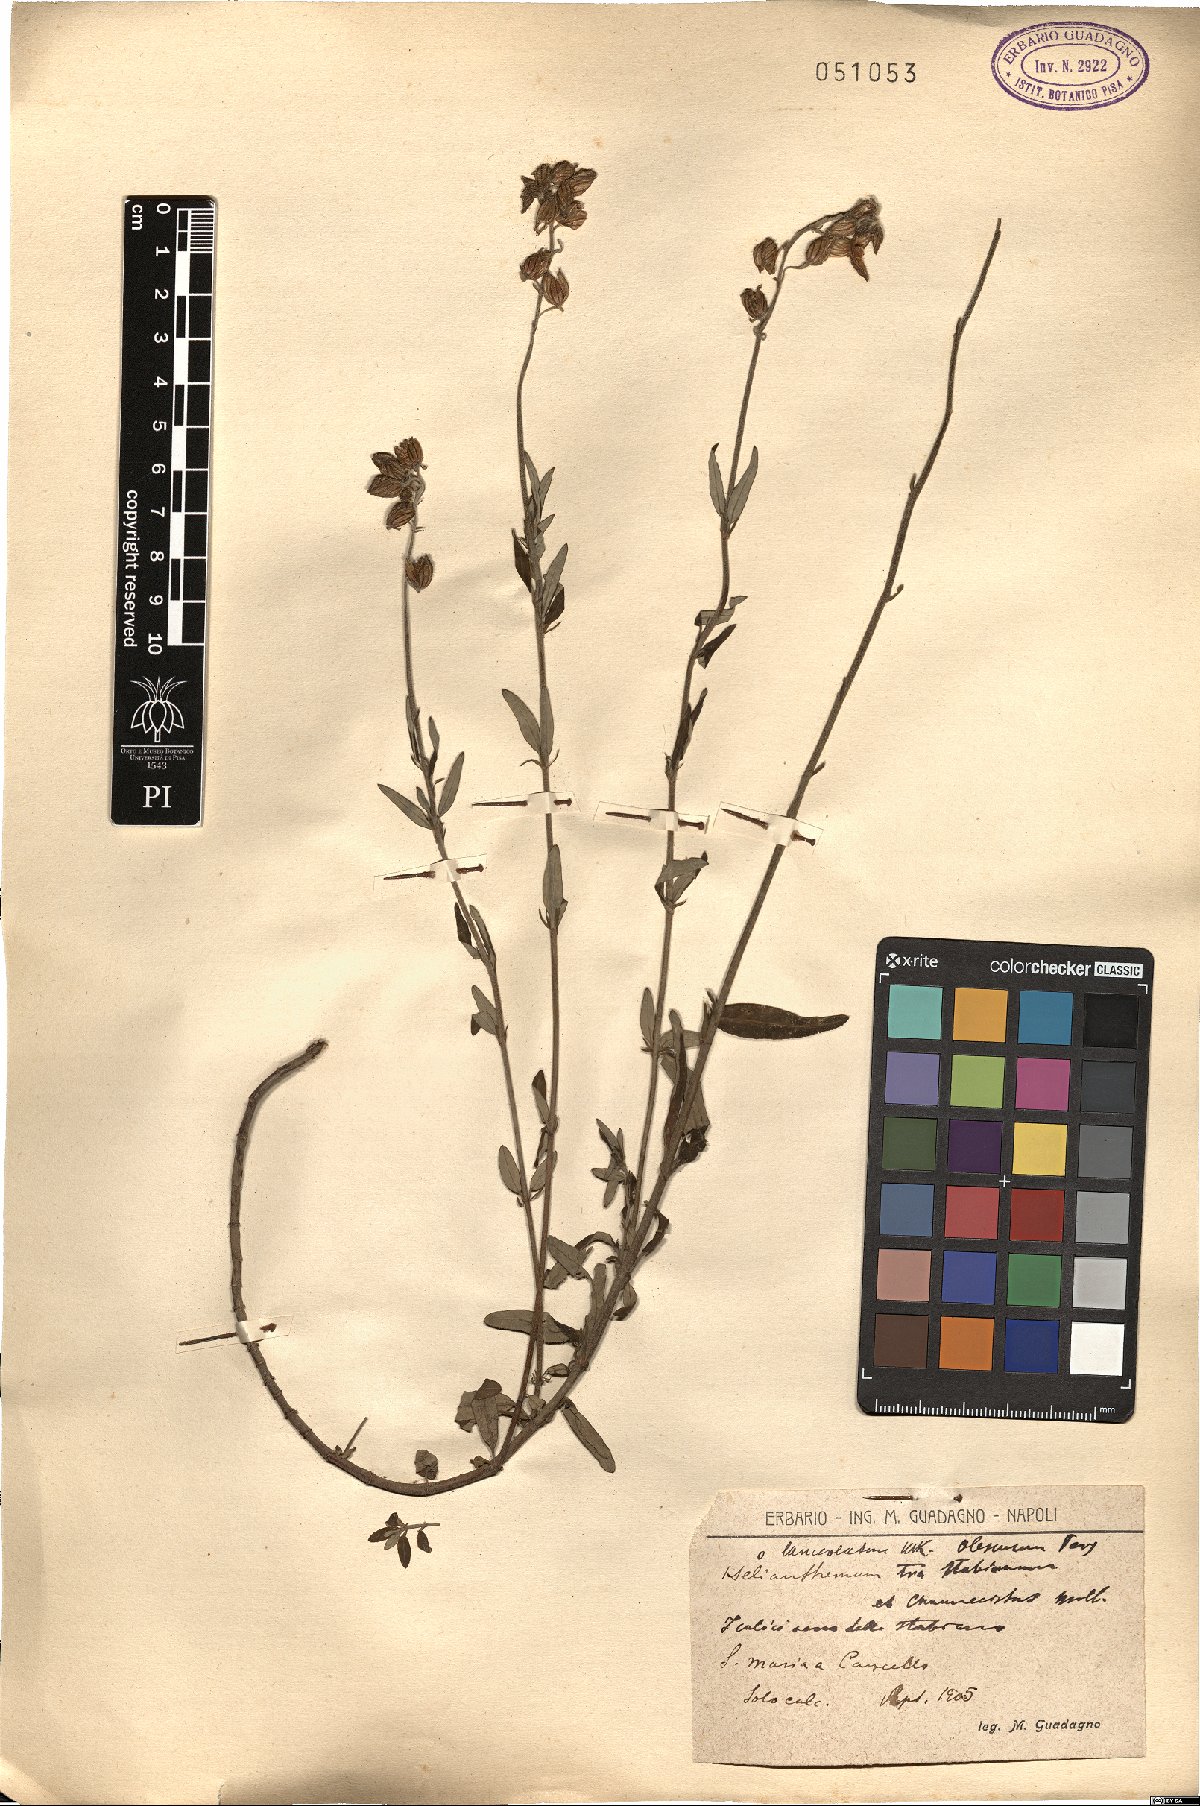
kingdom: Plantae
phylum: Tracheophyta
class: Magnoliopsida
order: Malvales
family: Cistaceae
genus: Helianthemum
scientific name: Helianthemum croceum
